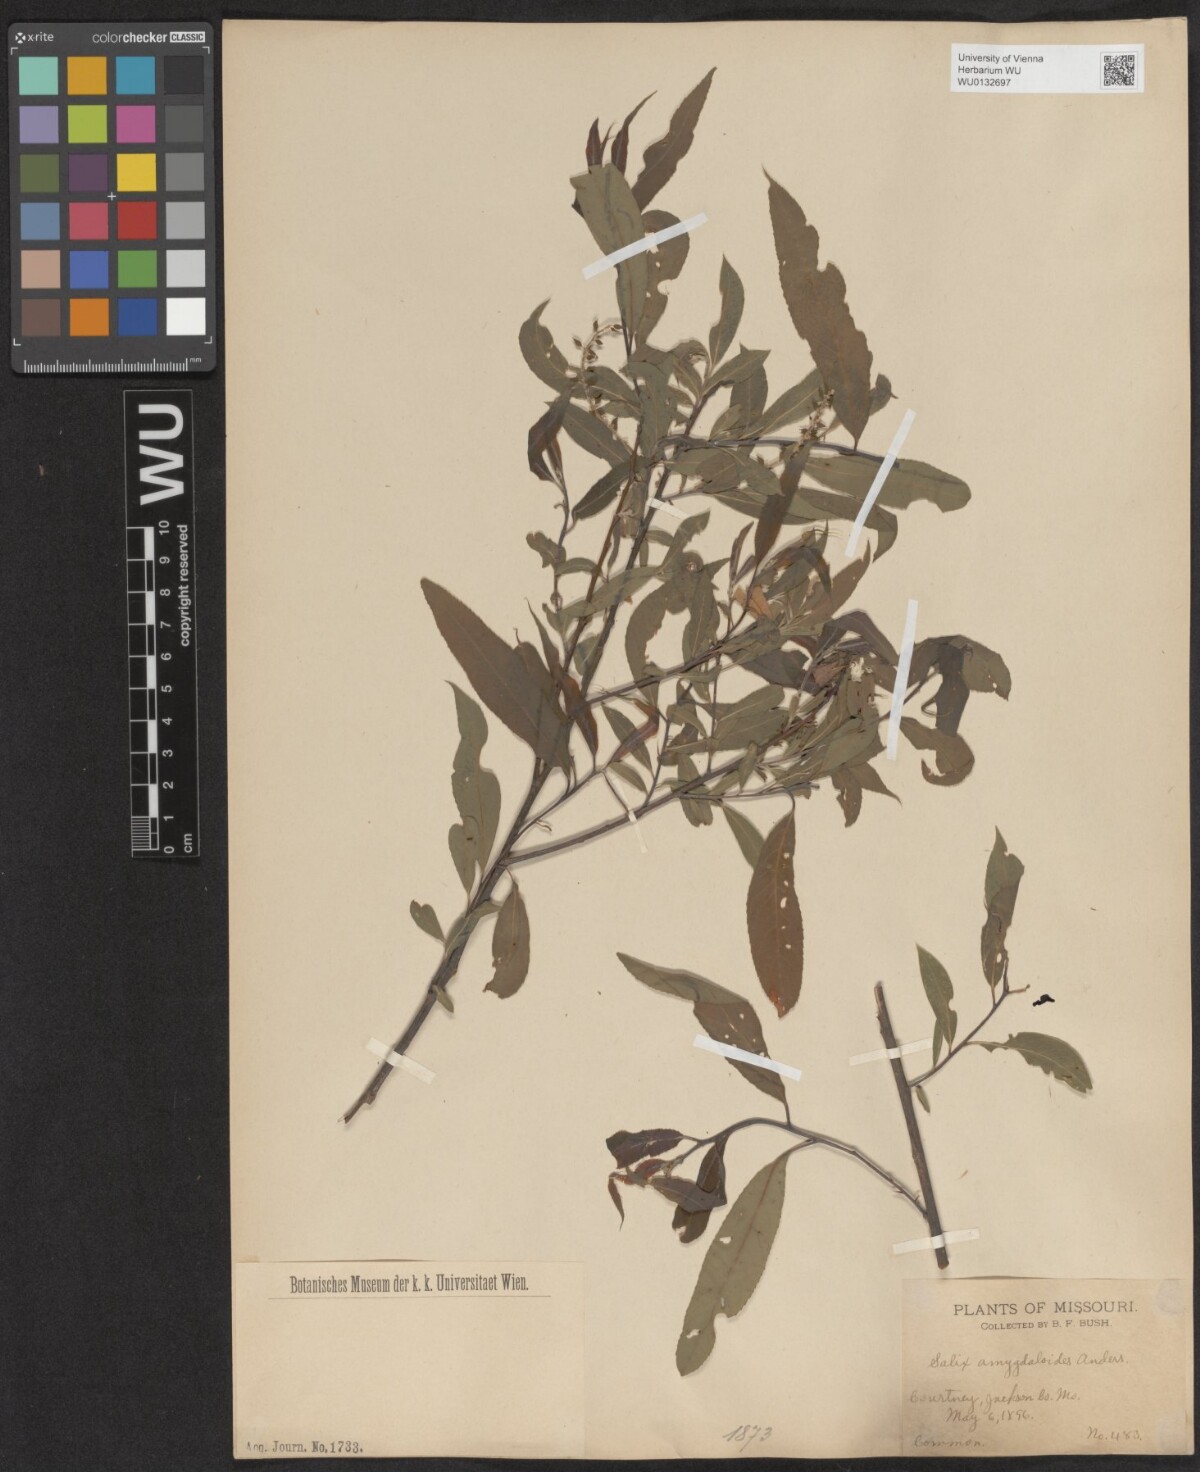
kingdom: Plantae
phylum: Tracheophyta
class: Magnoliopsida
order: Malpighiales
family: Salicaceae
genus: Salix
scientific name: Salix amygdaloides
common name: Peach leaf willow
